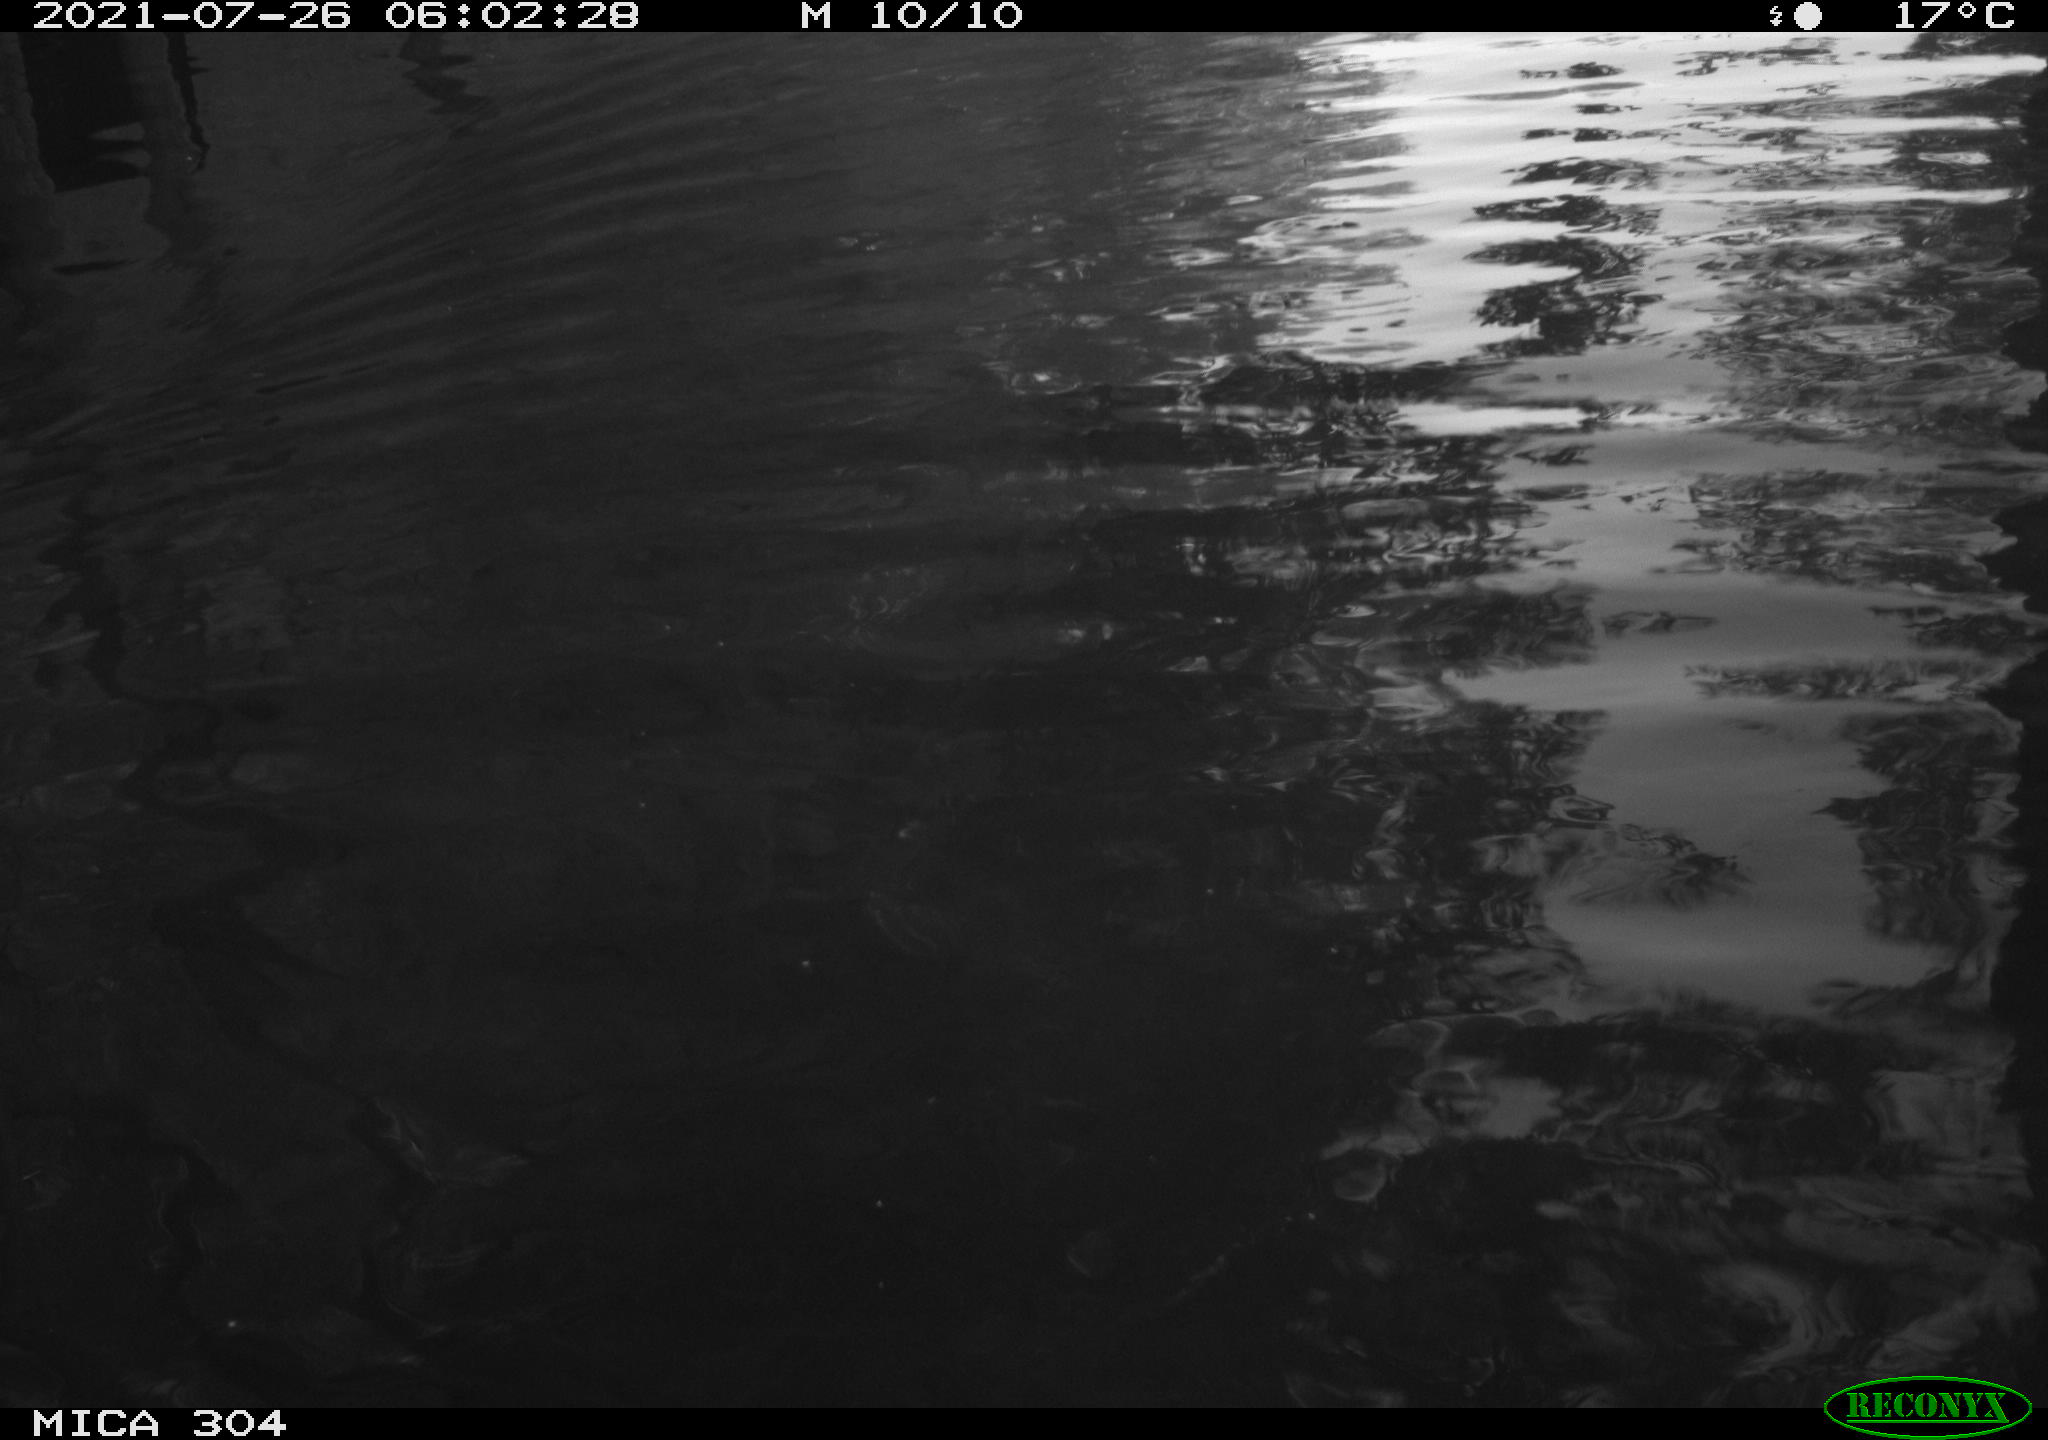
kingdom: Animalia
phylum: Chordata
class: Aves
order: Anseriformes
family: Anatidae
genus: Anas
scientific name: Anas platyrhynchos
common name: Mallard
